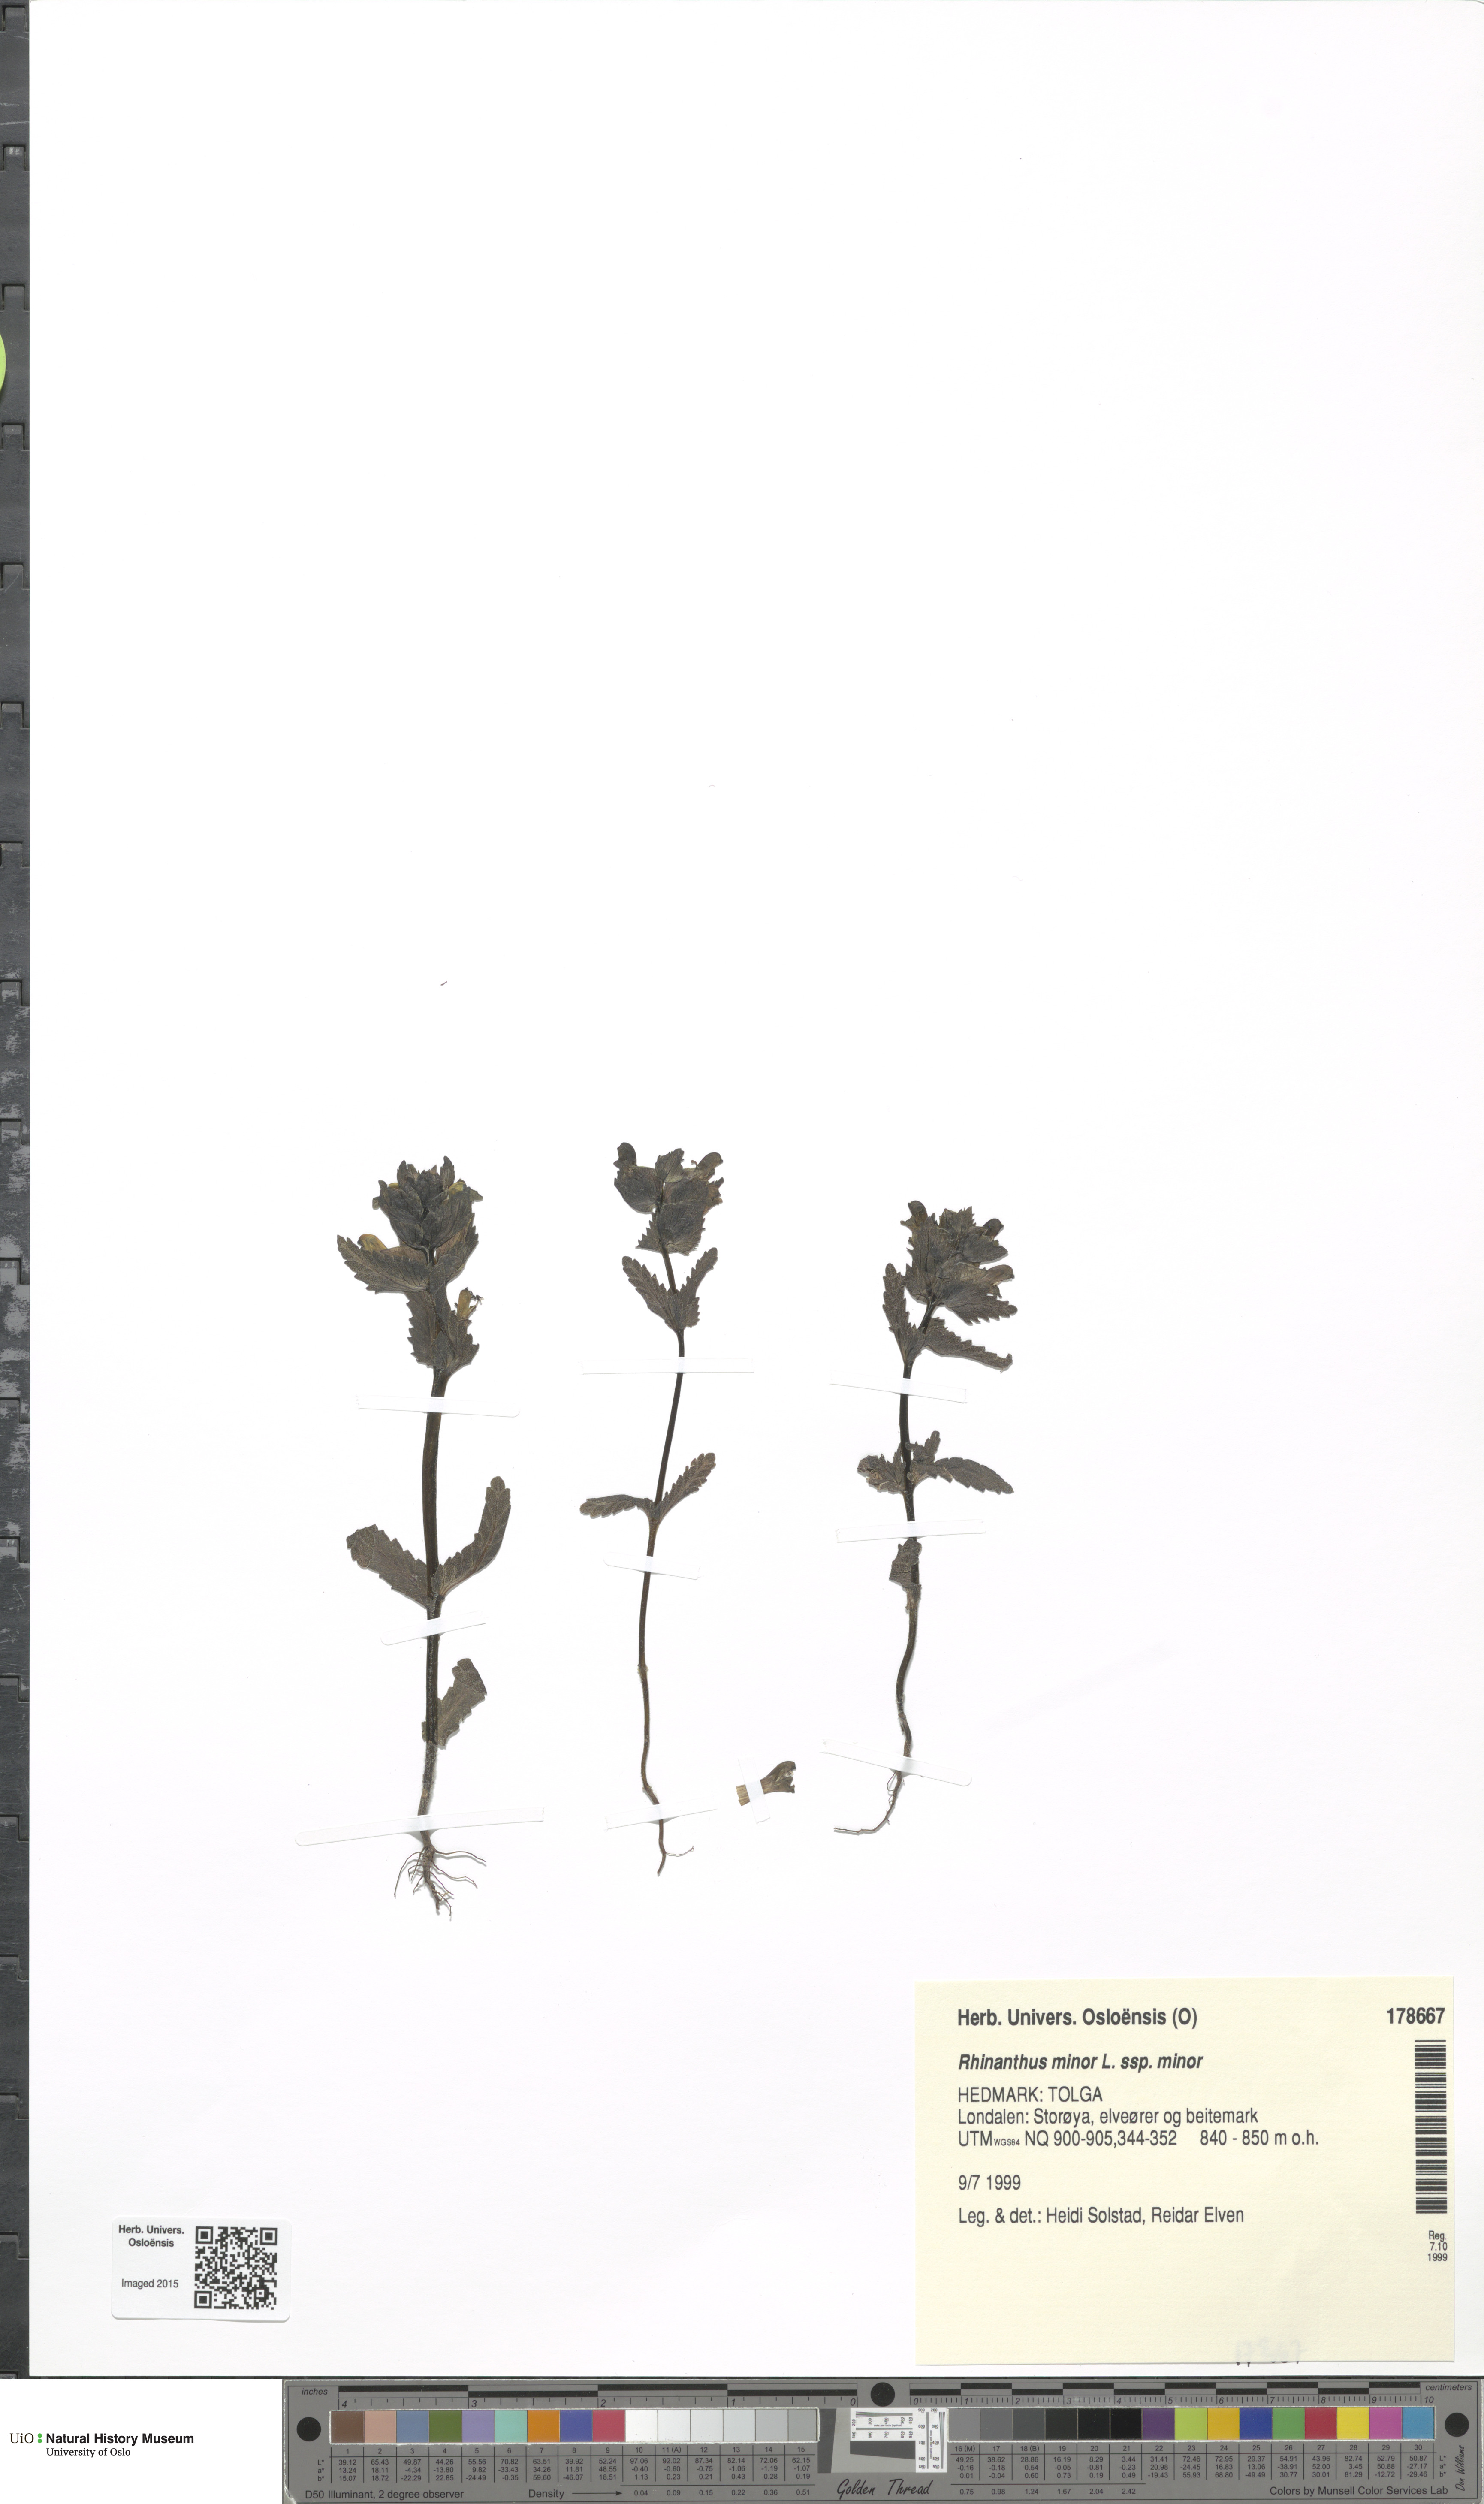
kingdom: Plantae
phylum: Tracheophyta
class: Magnoliopsida
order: Lamiales
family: Orobanchaceae
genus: Rhinanthus
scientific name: Rhinanthus minor
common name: Yellow-rattle
